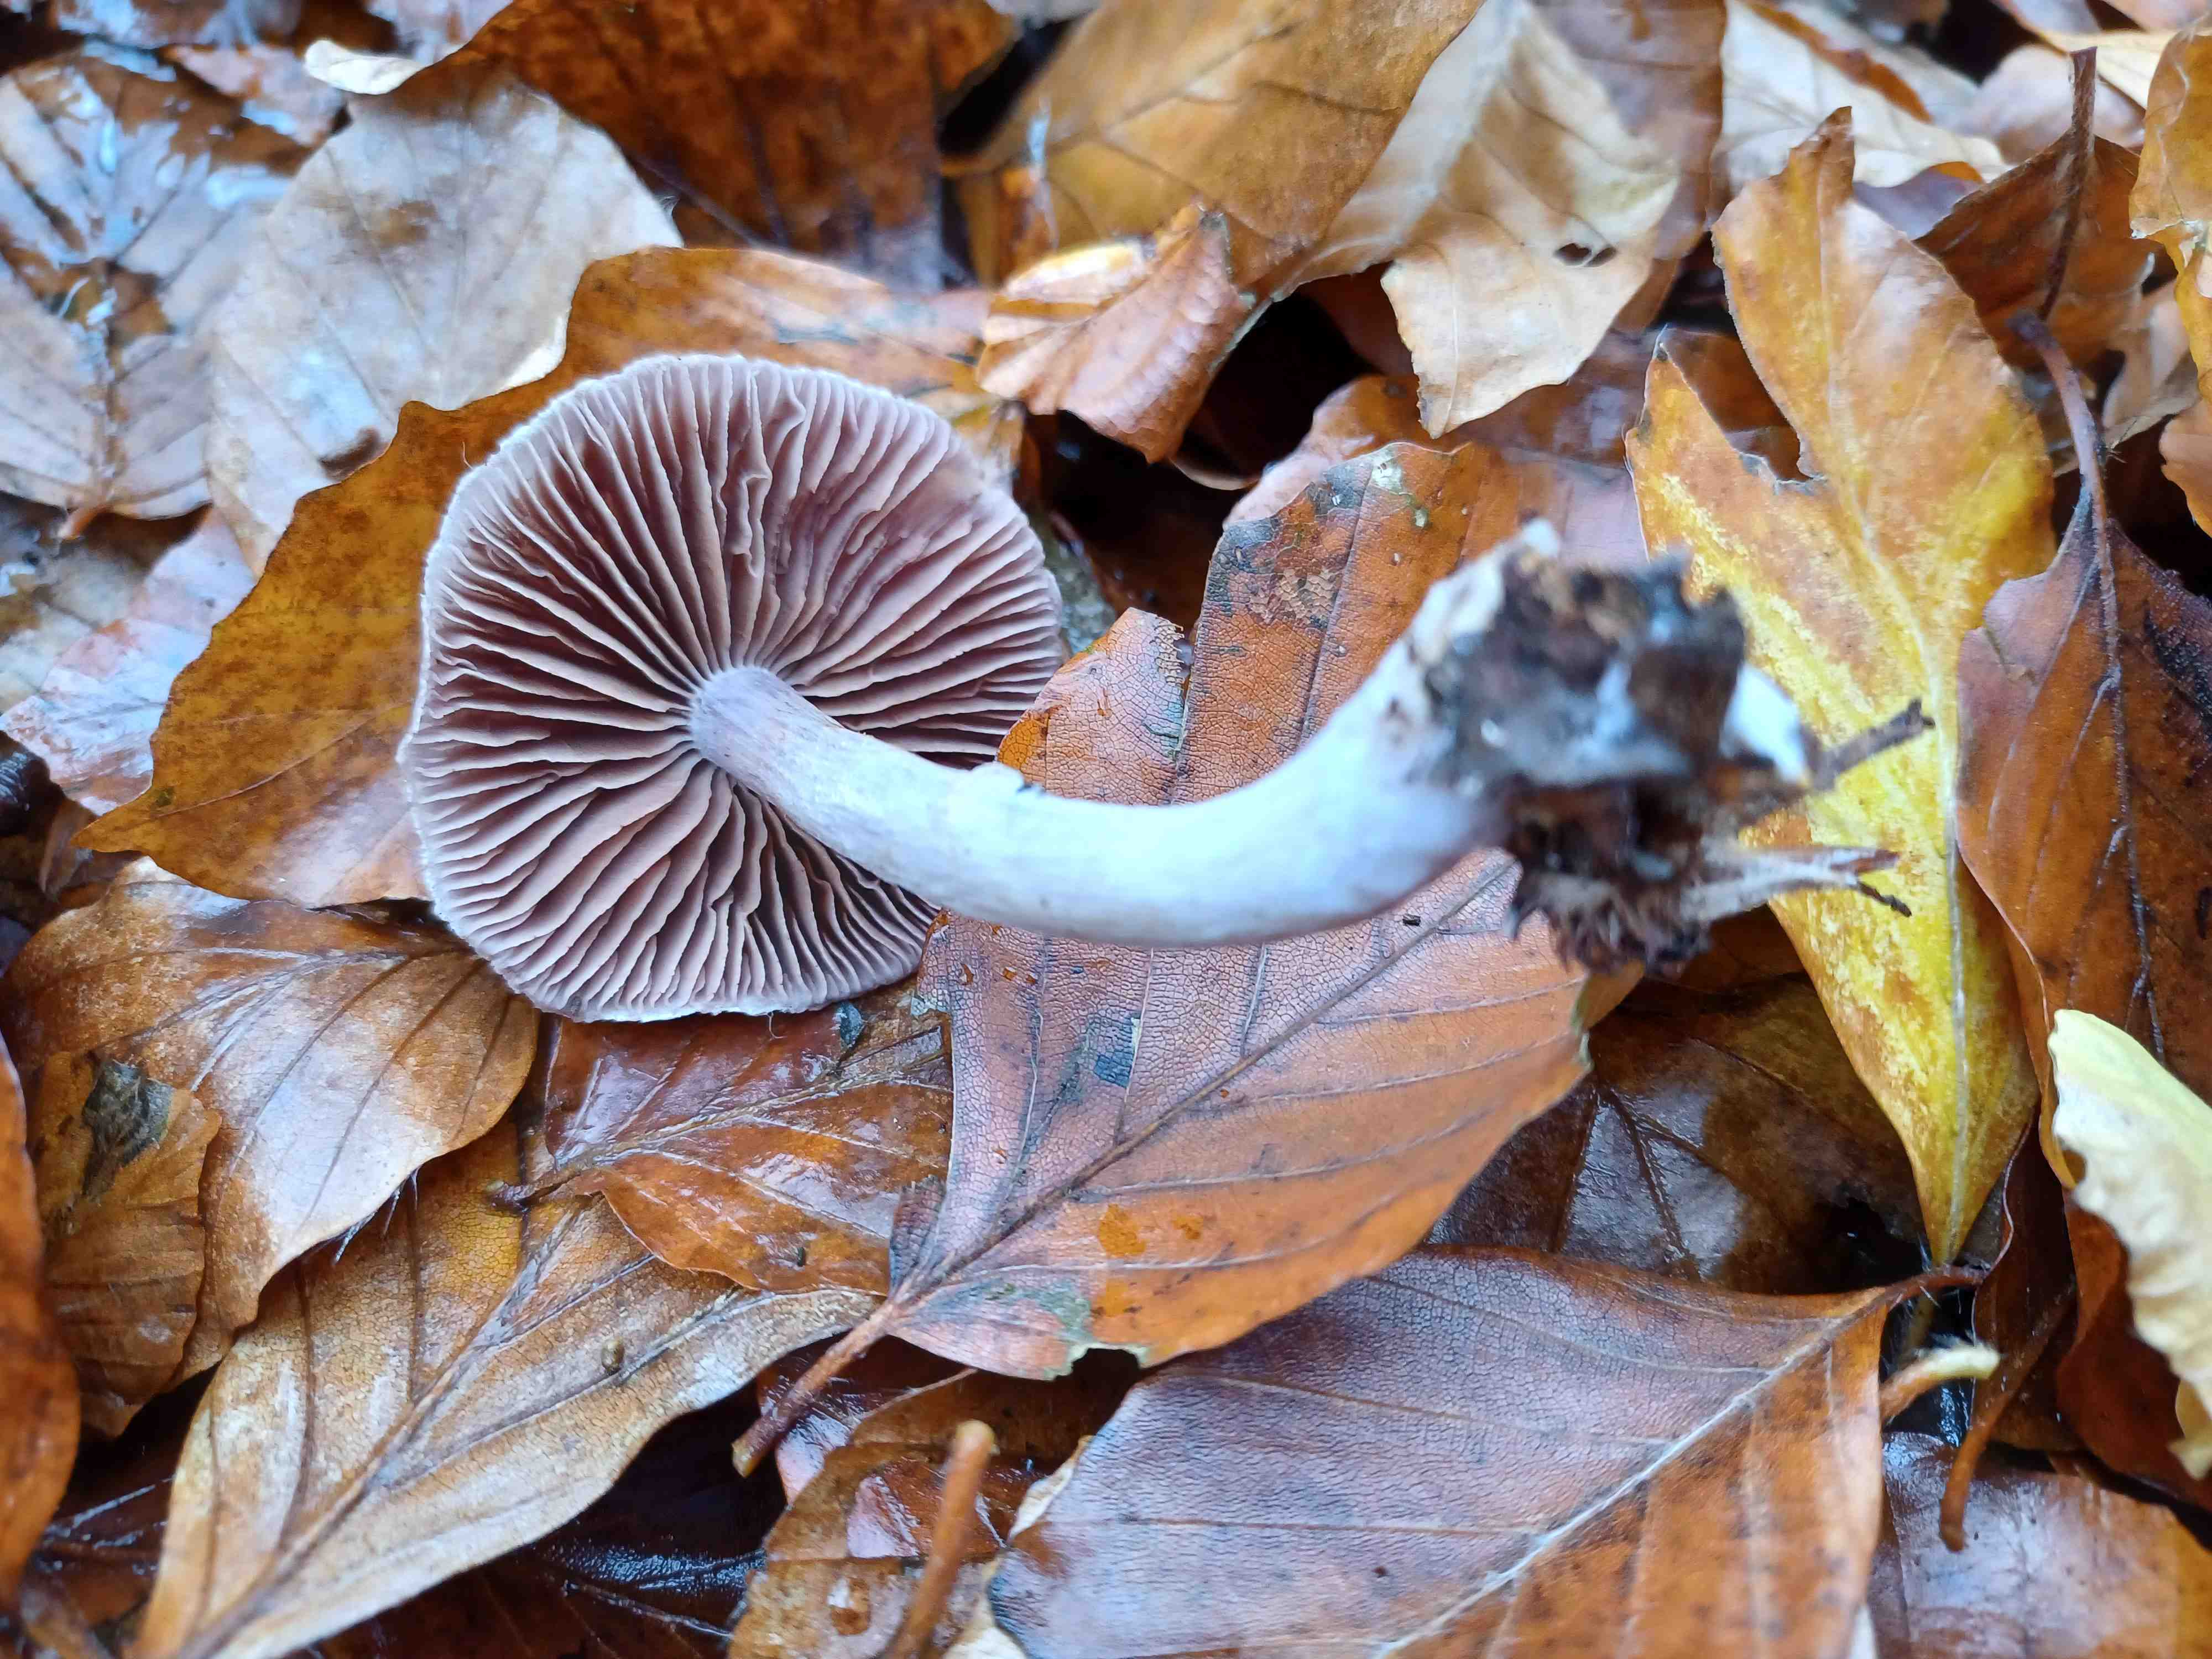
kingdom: Fungi
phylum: Basidiomycota
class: Agaricomycetes
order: Agaricales
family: Cortinariaceae
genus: Cortinarius
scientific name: Cortinarius
